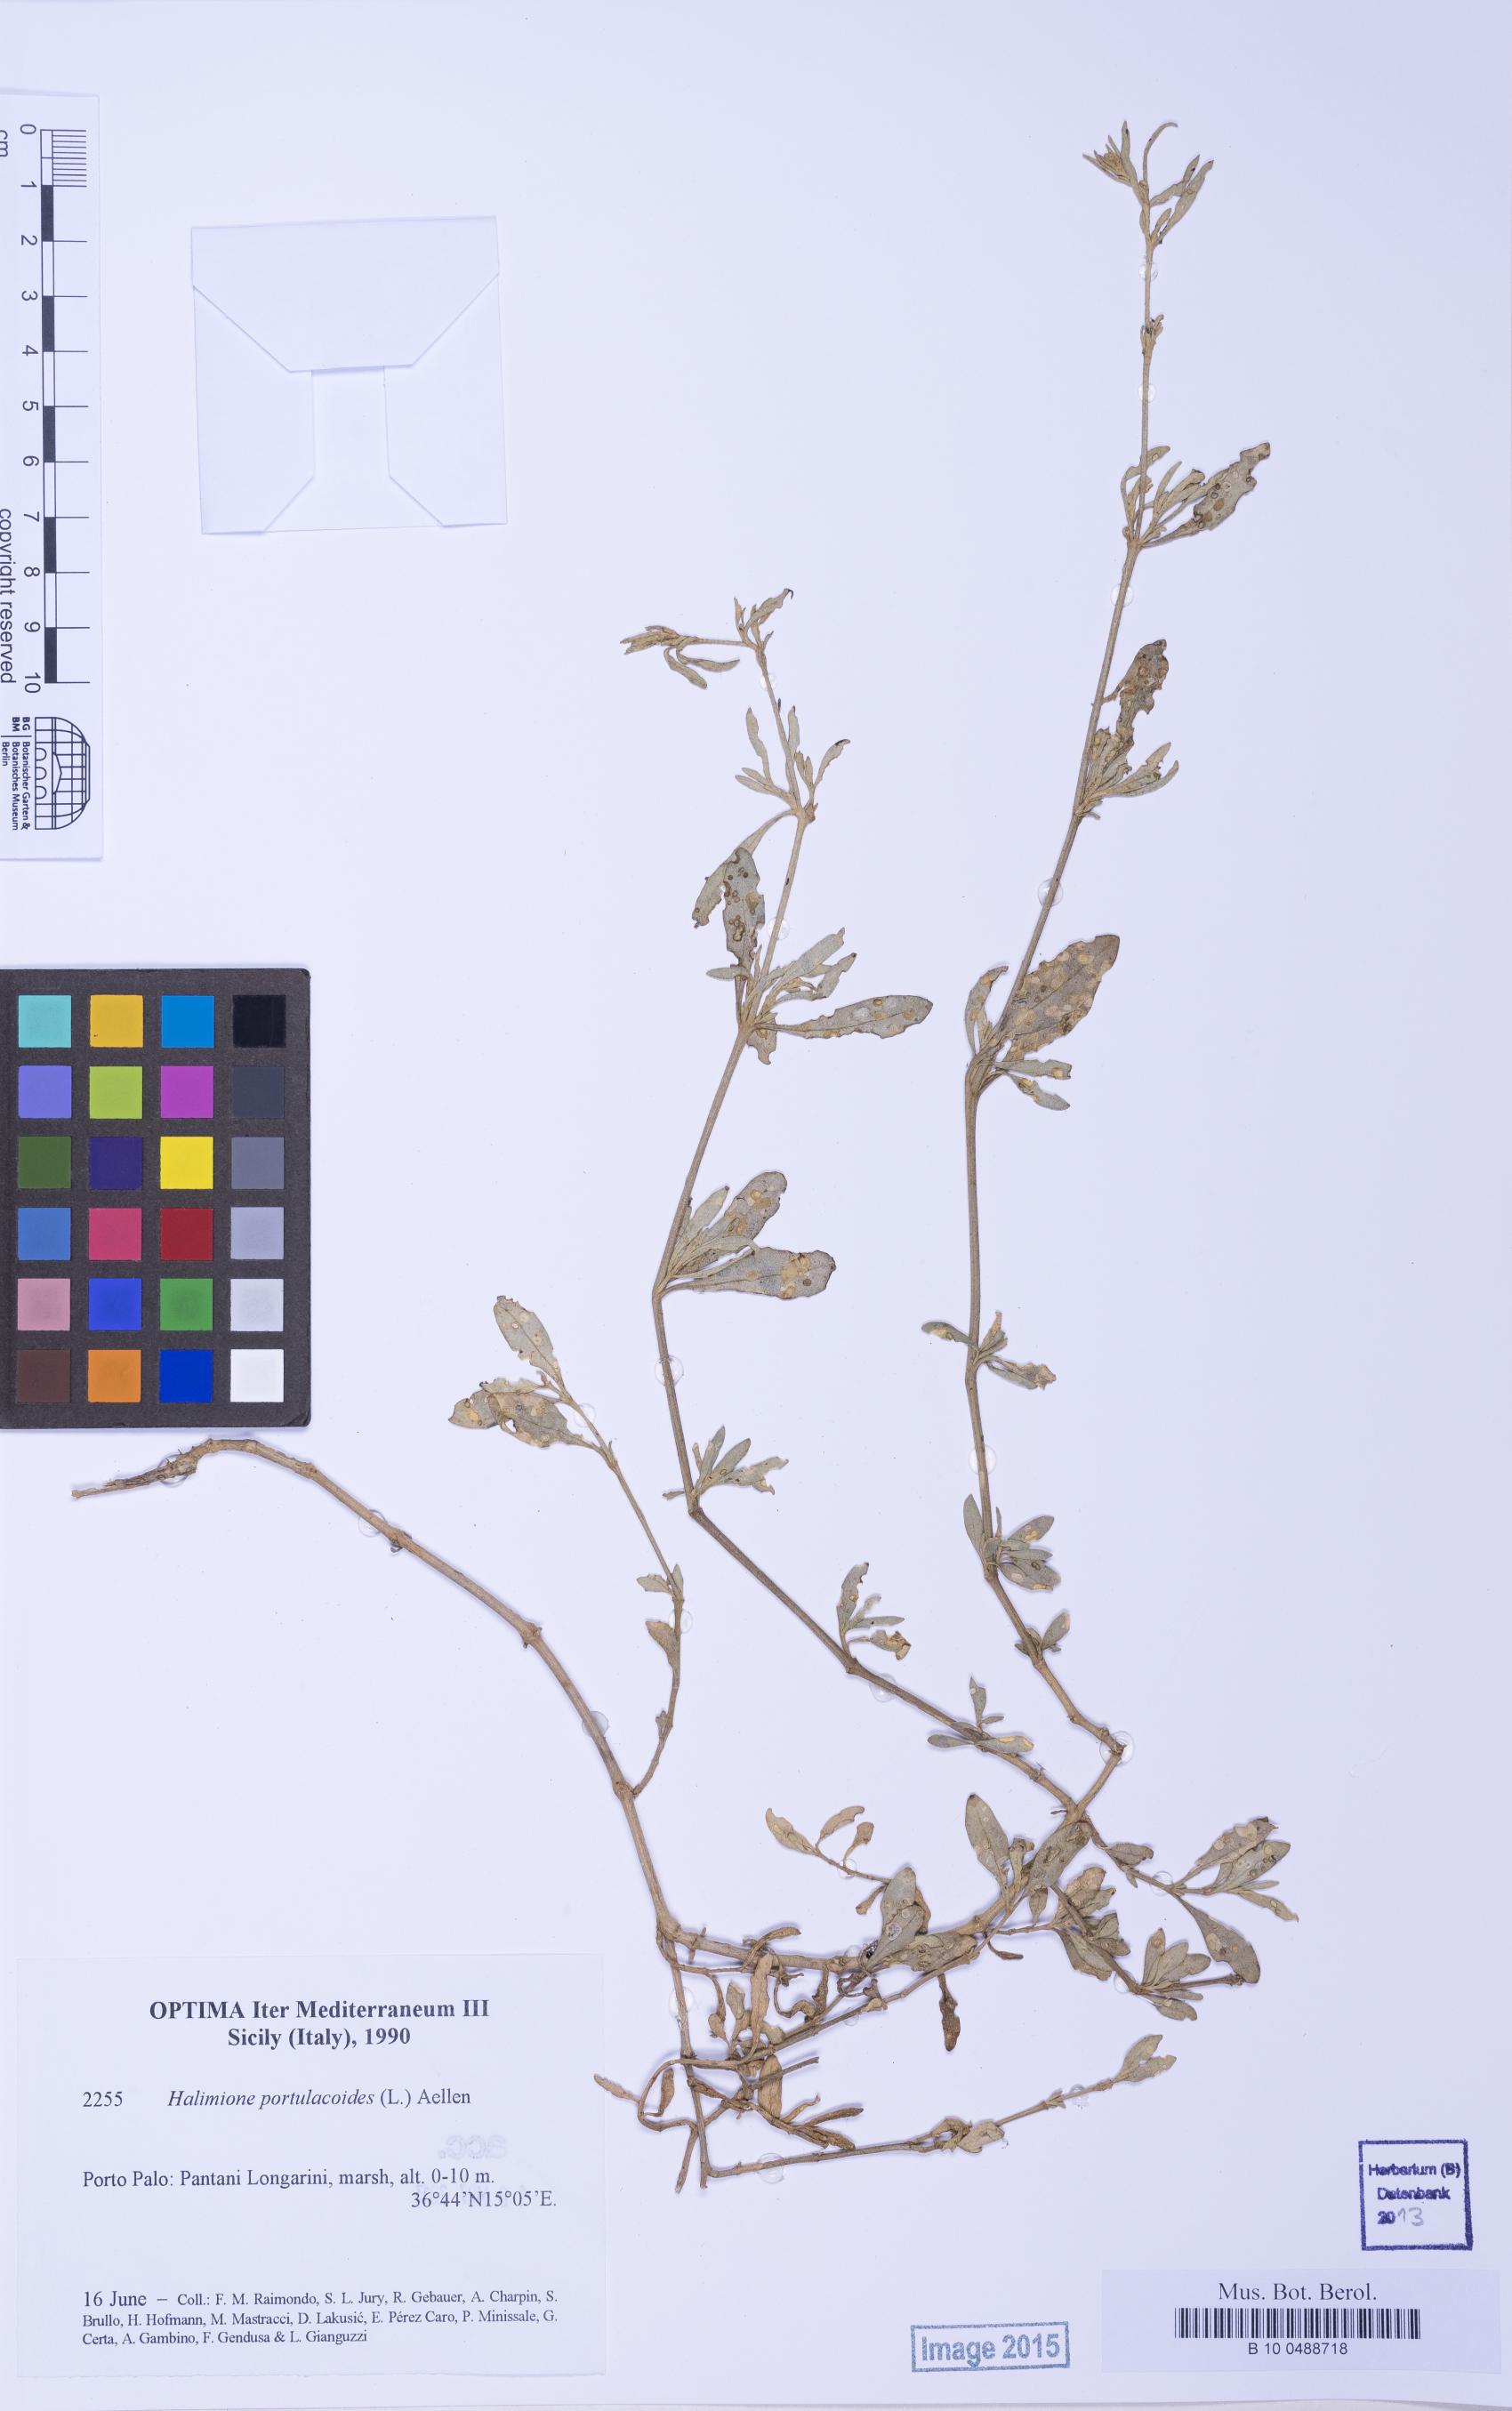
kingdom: Plantae
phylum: Tracheophyta
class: Magnoliopsida
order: Caryophyllales
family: Amaranthaceae
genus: Halimione
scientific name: Halimione portulacoides
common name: Sea-purslane
